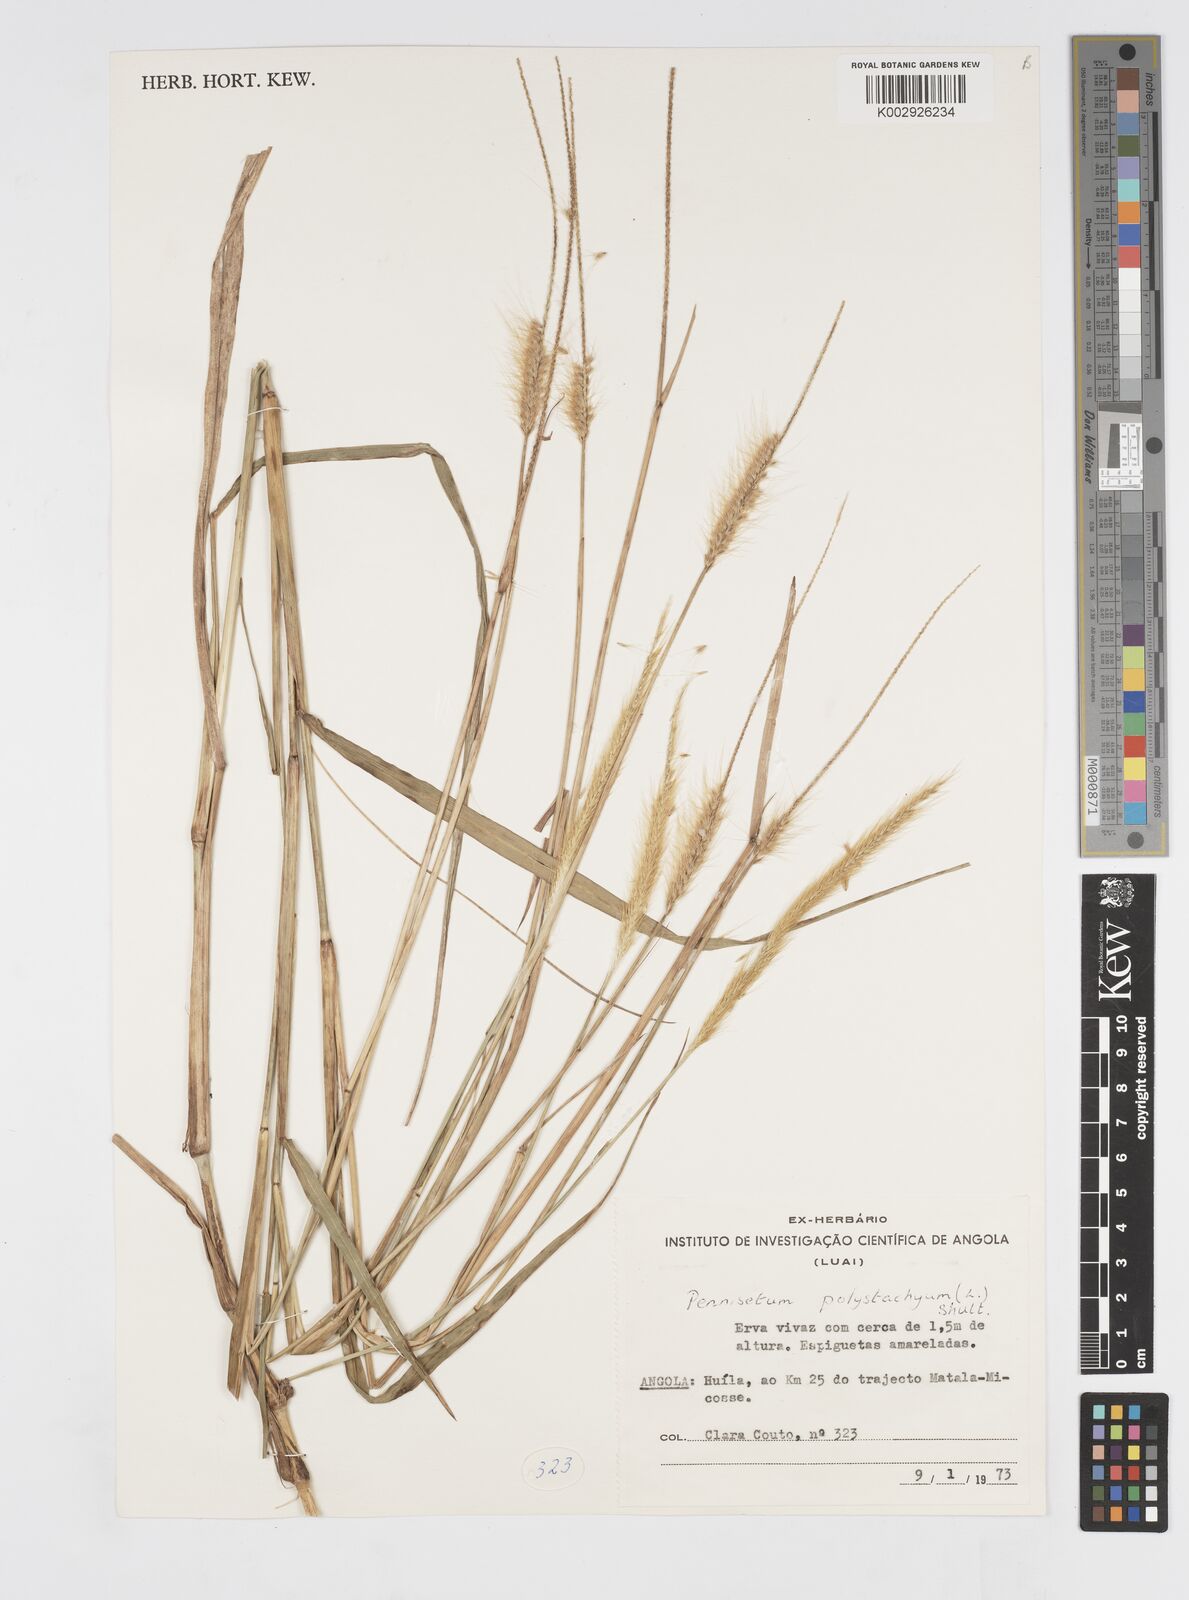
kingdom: Plantae
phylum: Tracheophyta
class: Liliopsida
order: Poales
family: Poaceae
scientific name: Poaceae
